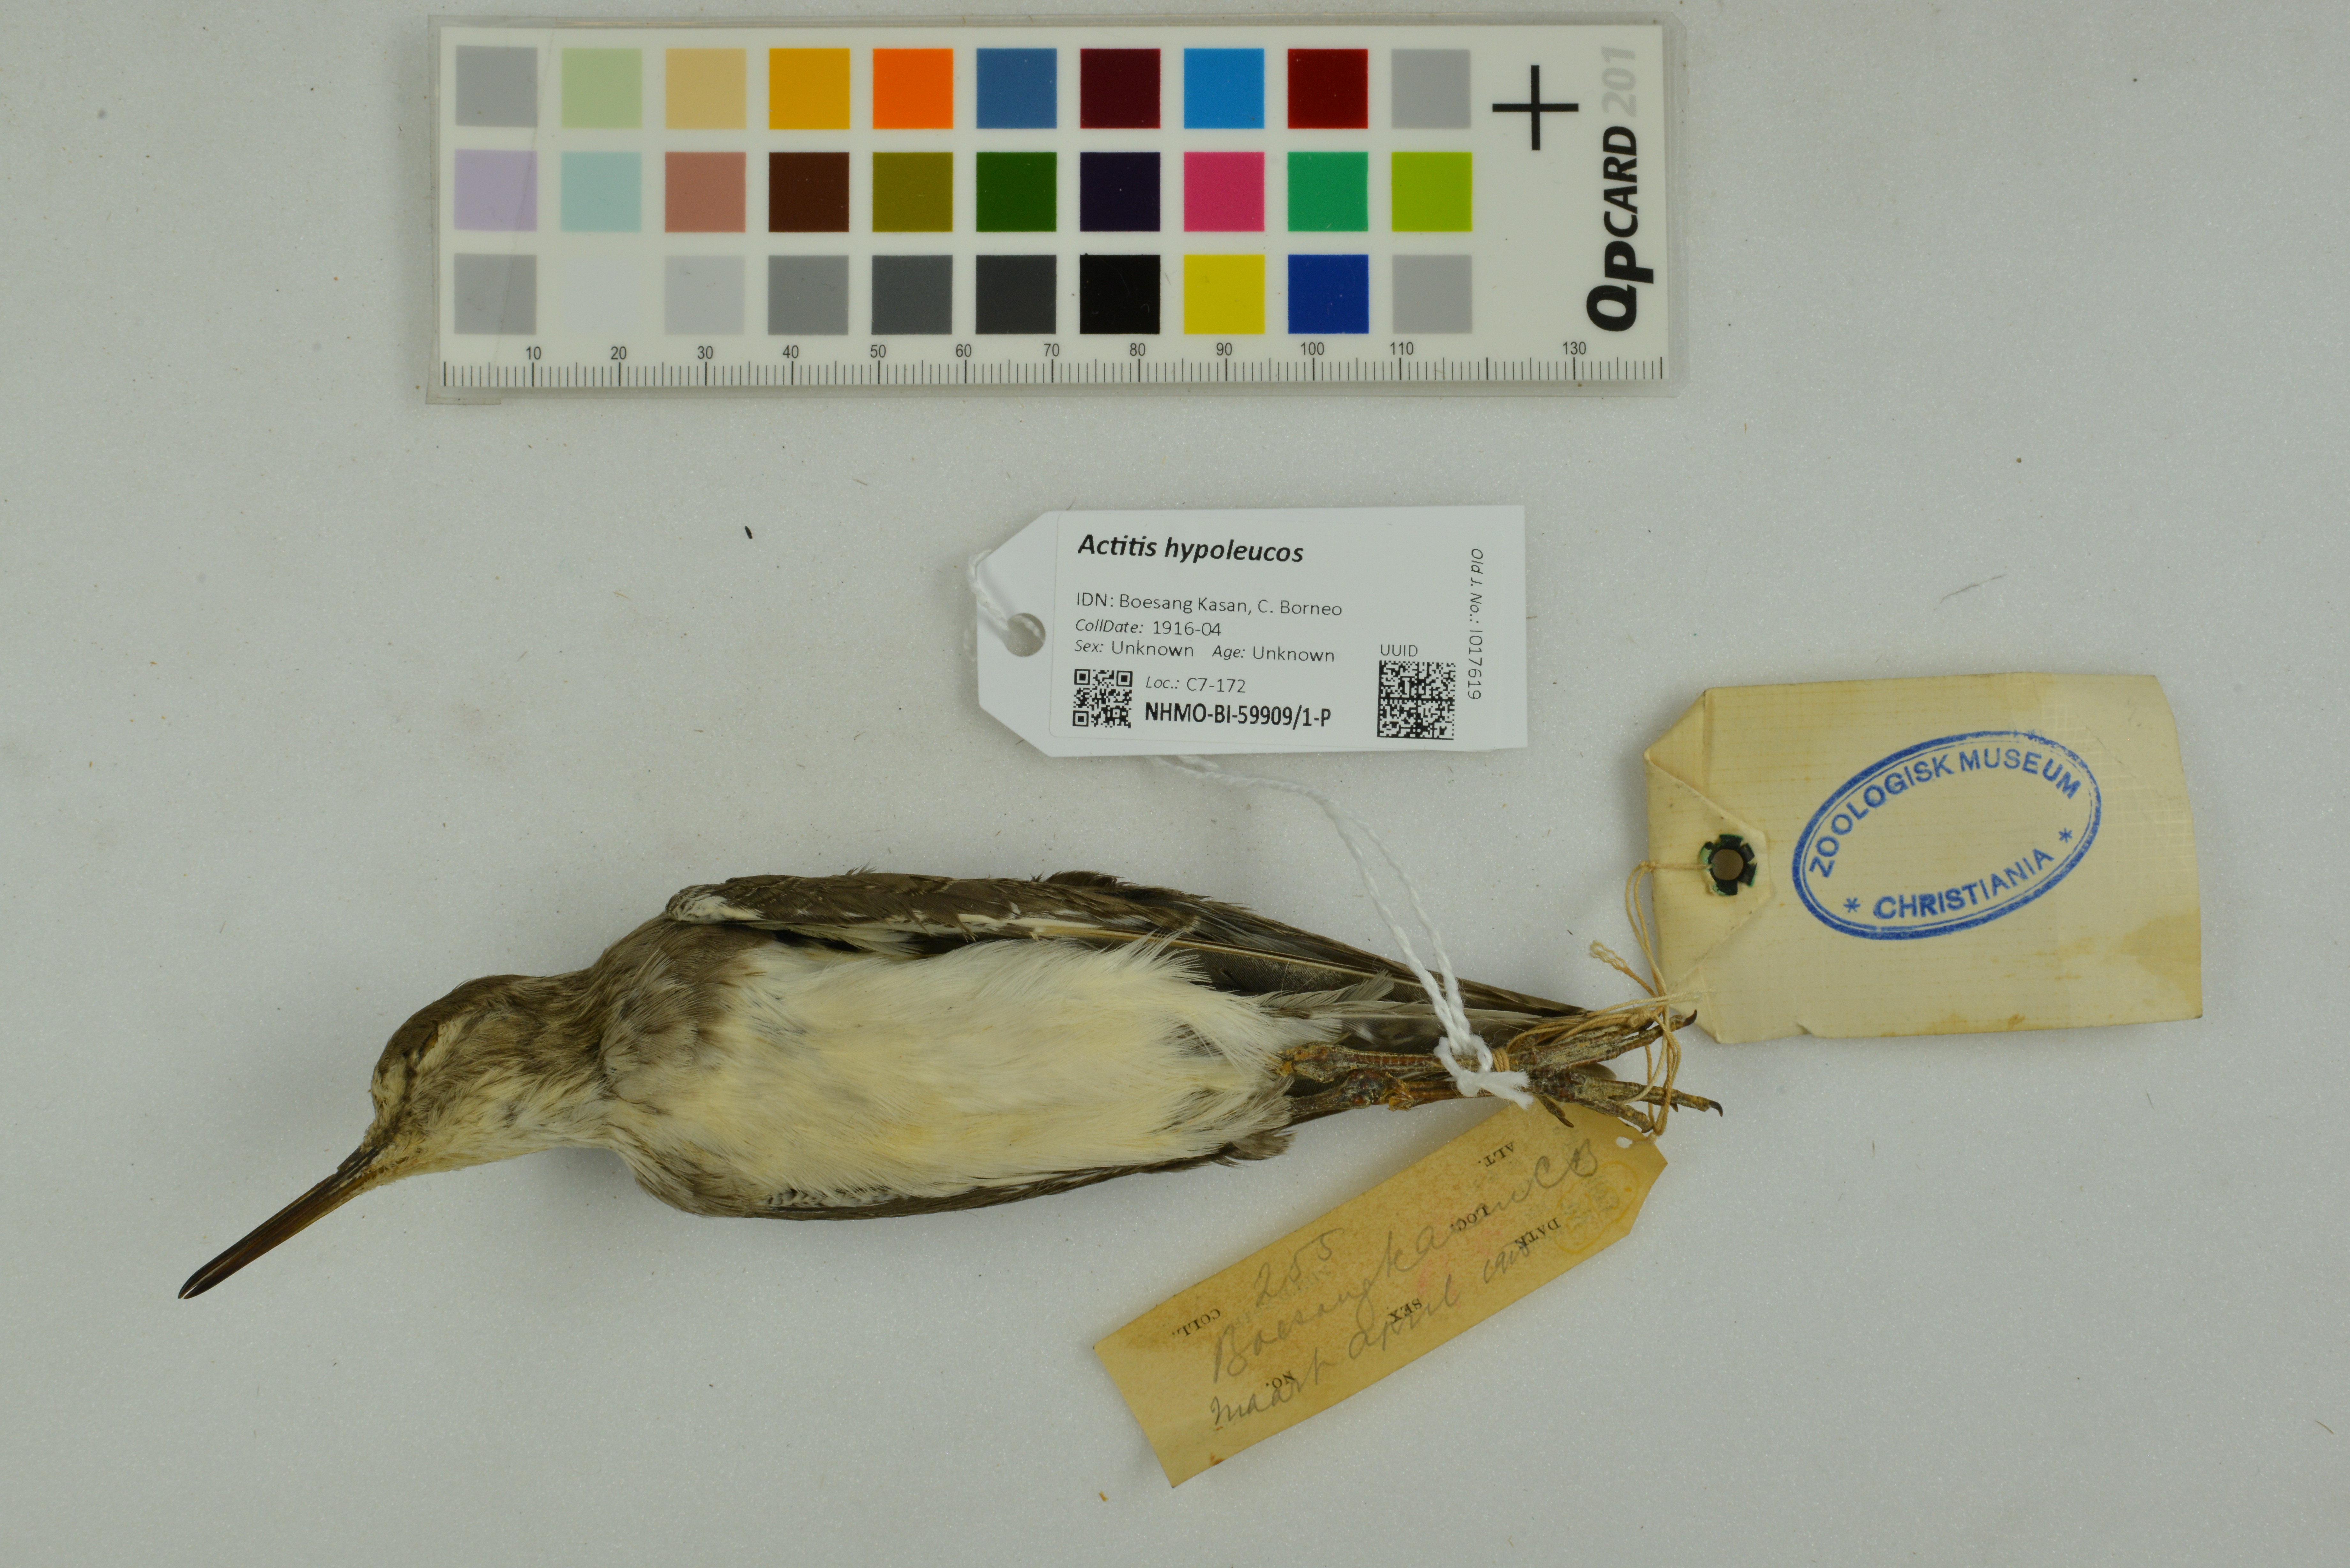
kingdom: Animalia
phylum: Chordata
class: Aves
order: Charadriiformes
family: Scolopacidae
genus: Actitis
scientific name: Actitis hypoleucos
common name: Common sandpiper
